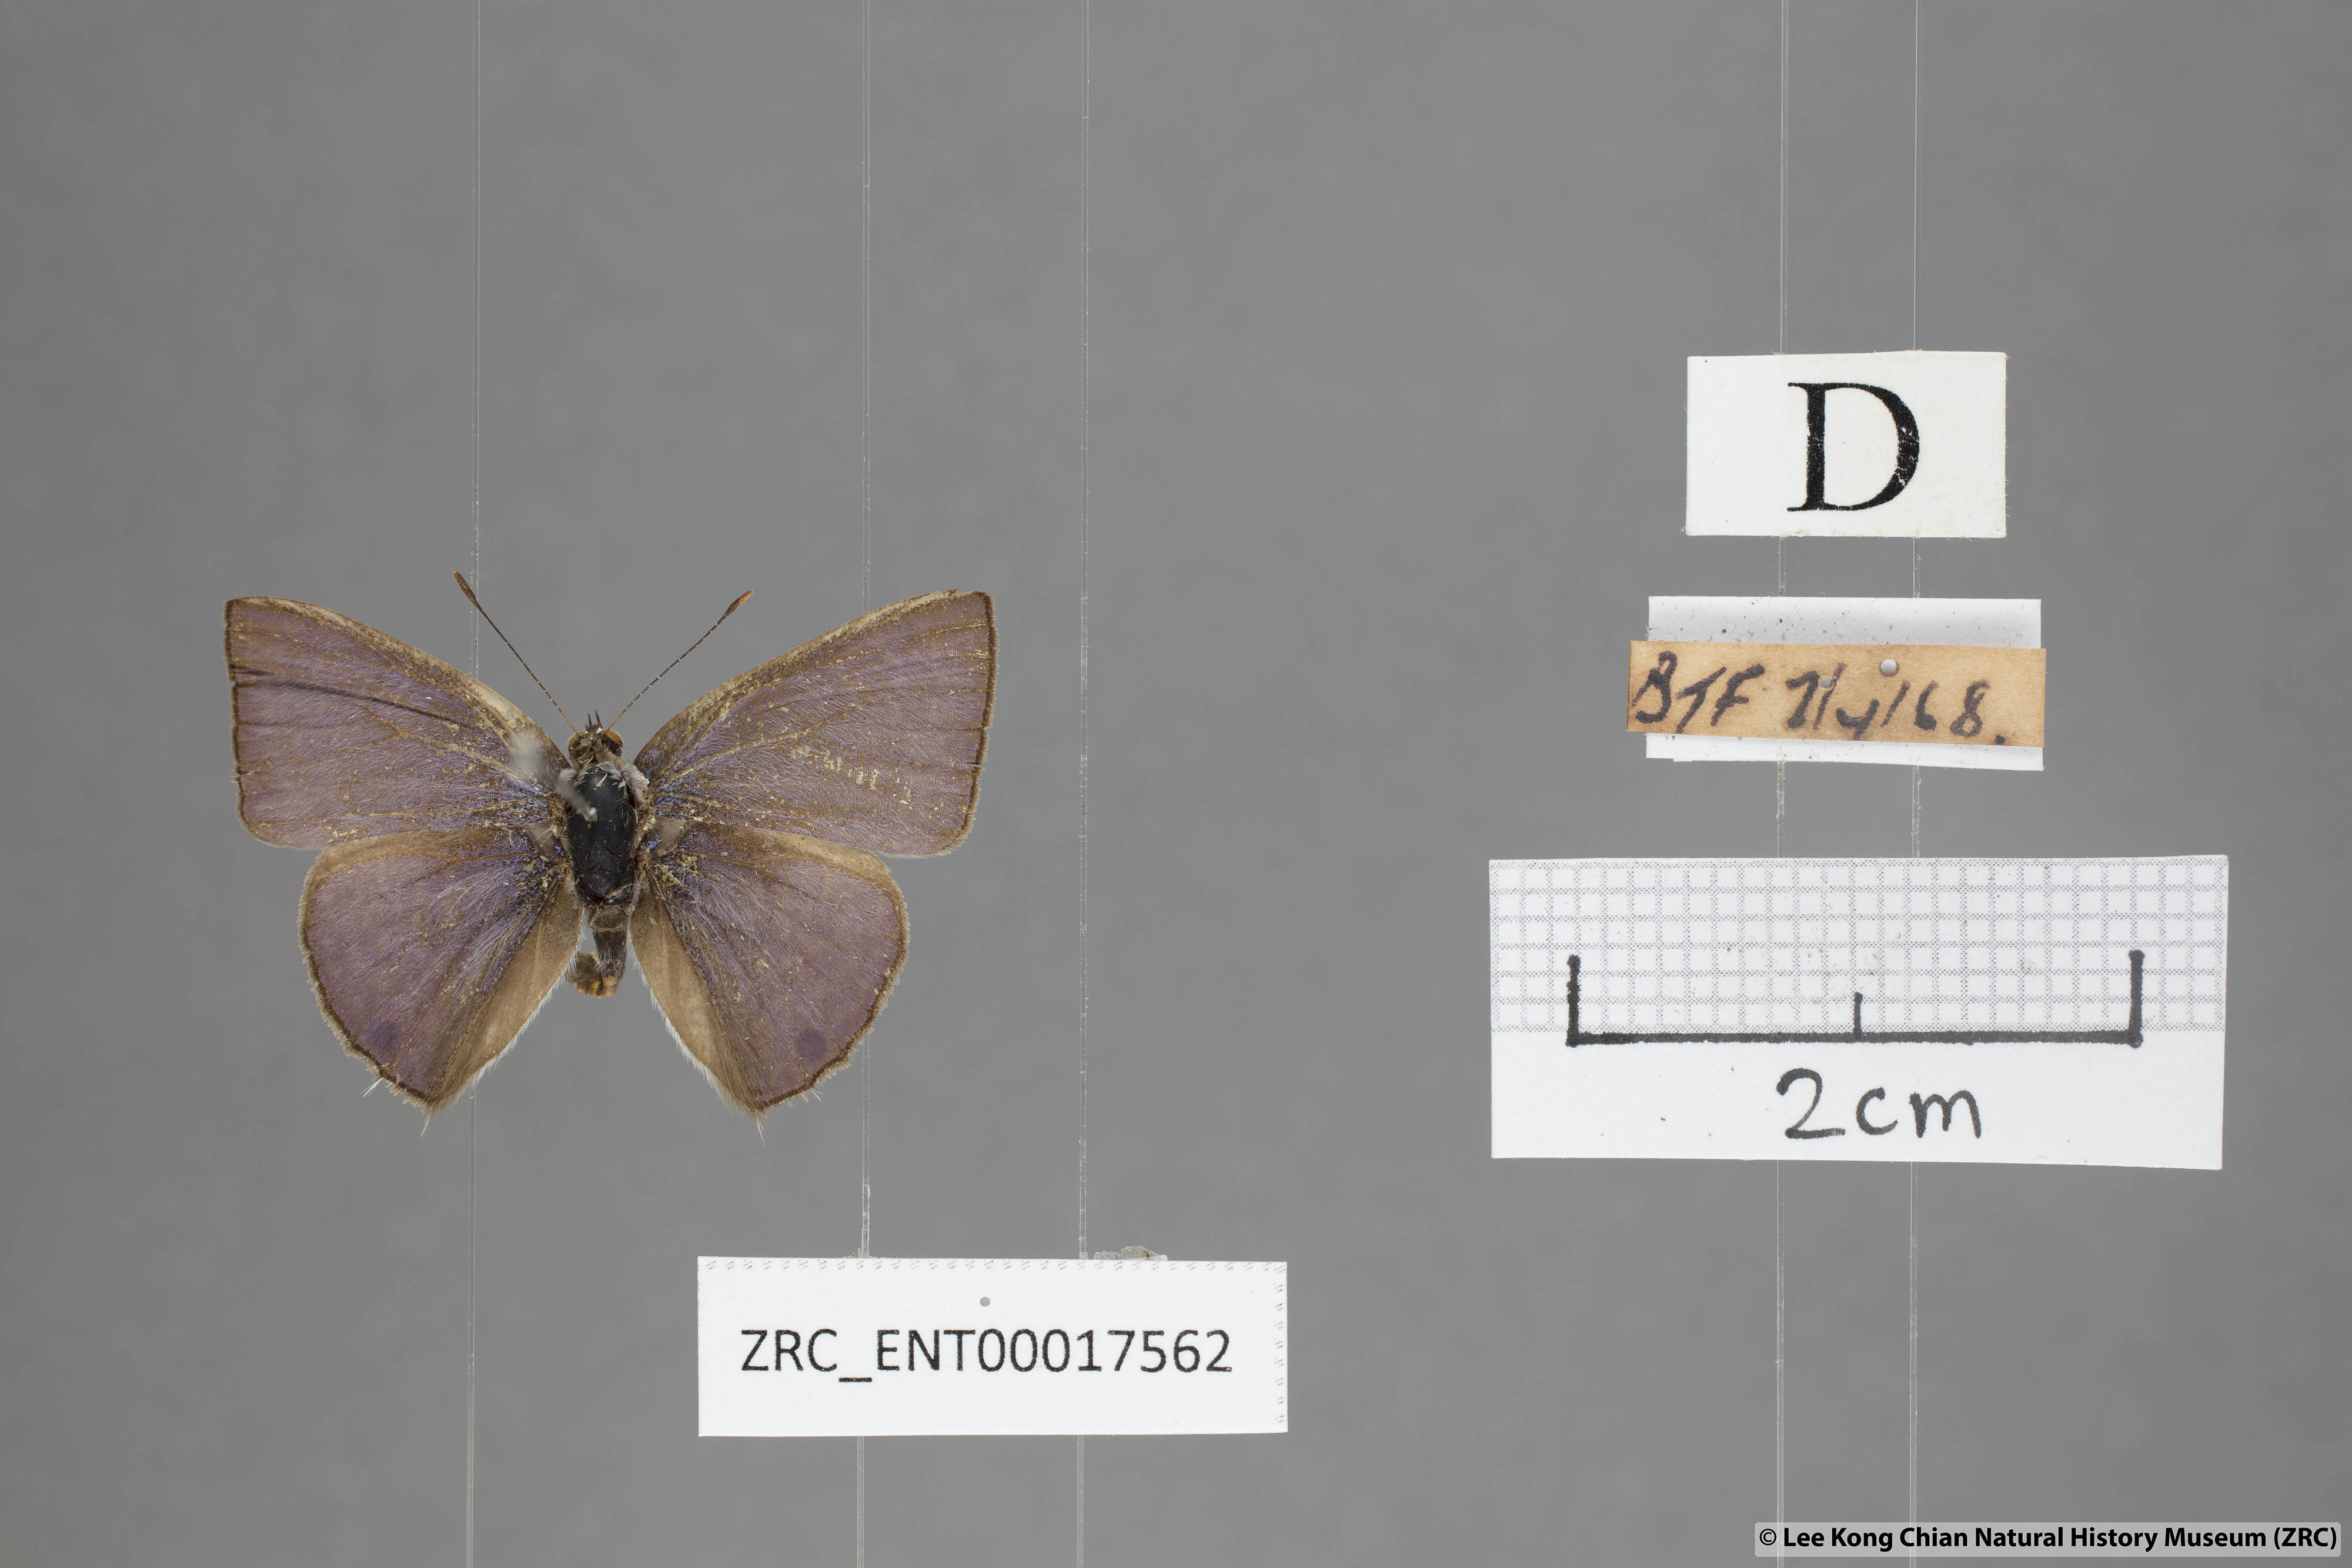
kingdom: Animalia
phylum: Arthropoda
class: Insecta
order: Lepidoptera
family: Lycaenidae
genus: Anthene
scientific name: Anthene lycaenoides
